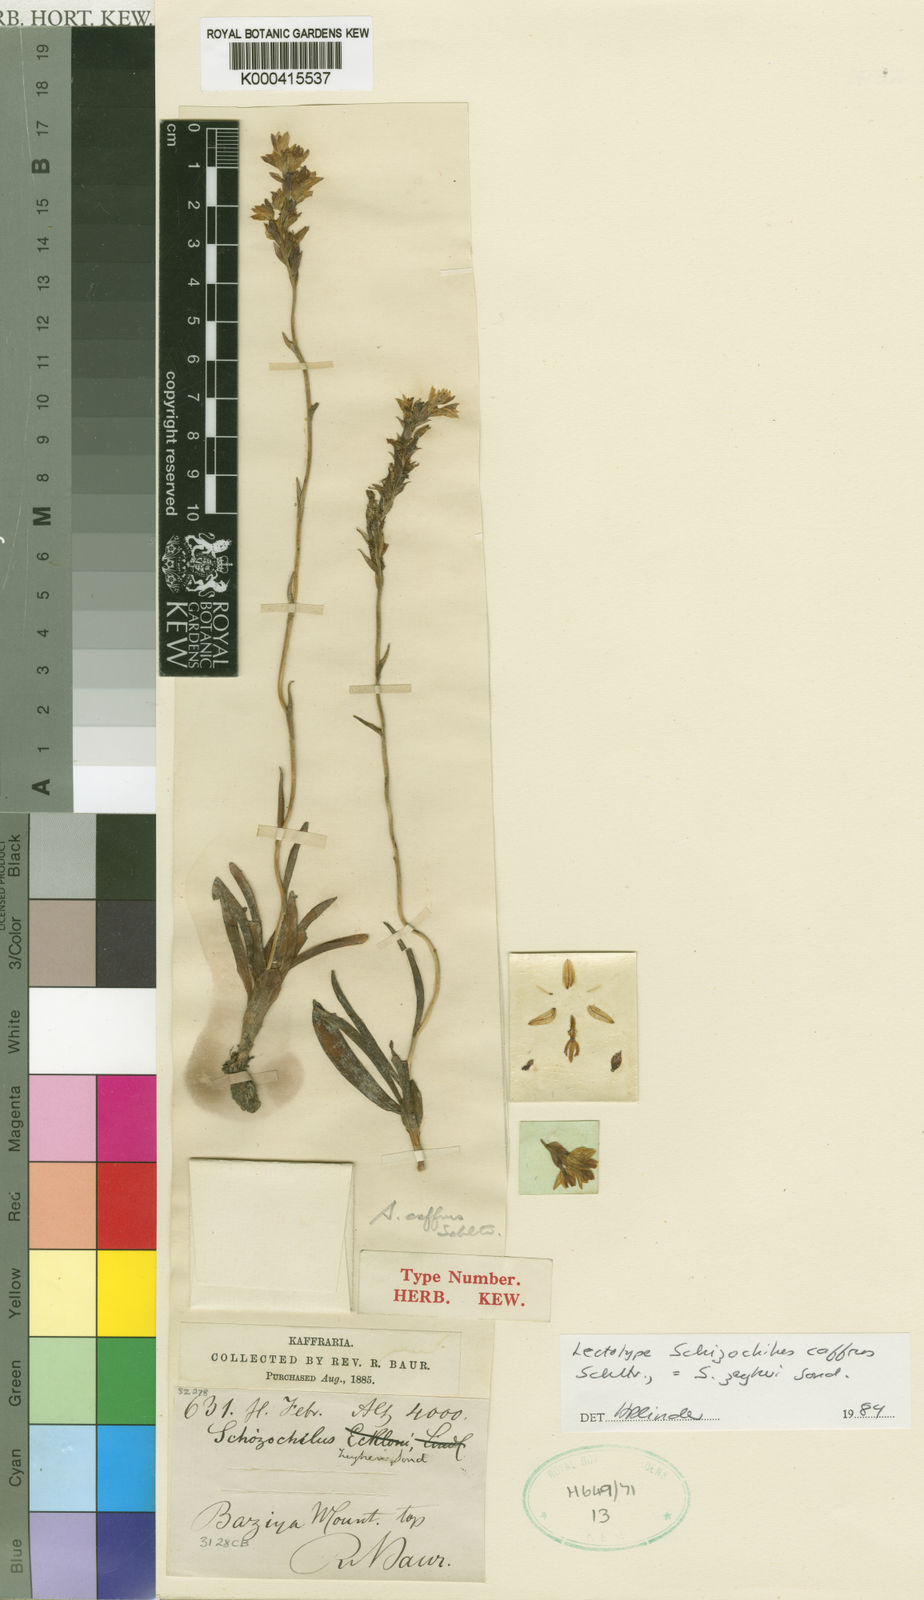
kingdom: Plantae
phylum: Tracheophyta
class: Liliopsida
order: Asparagales
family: Orchidaceae
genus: Schizochilus
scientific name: Schizochilus zeyheri
